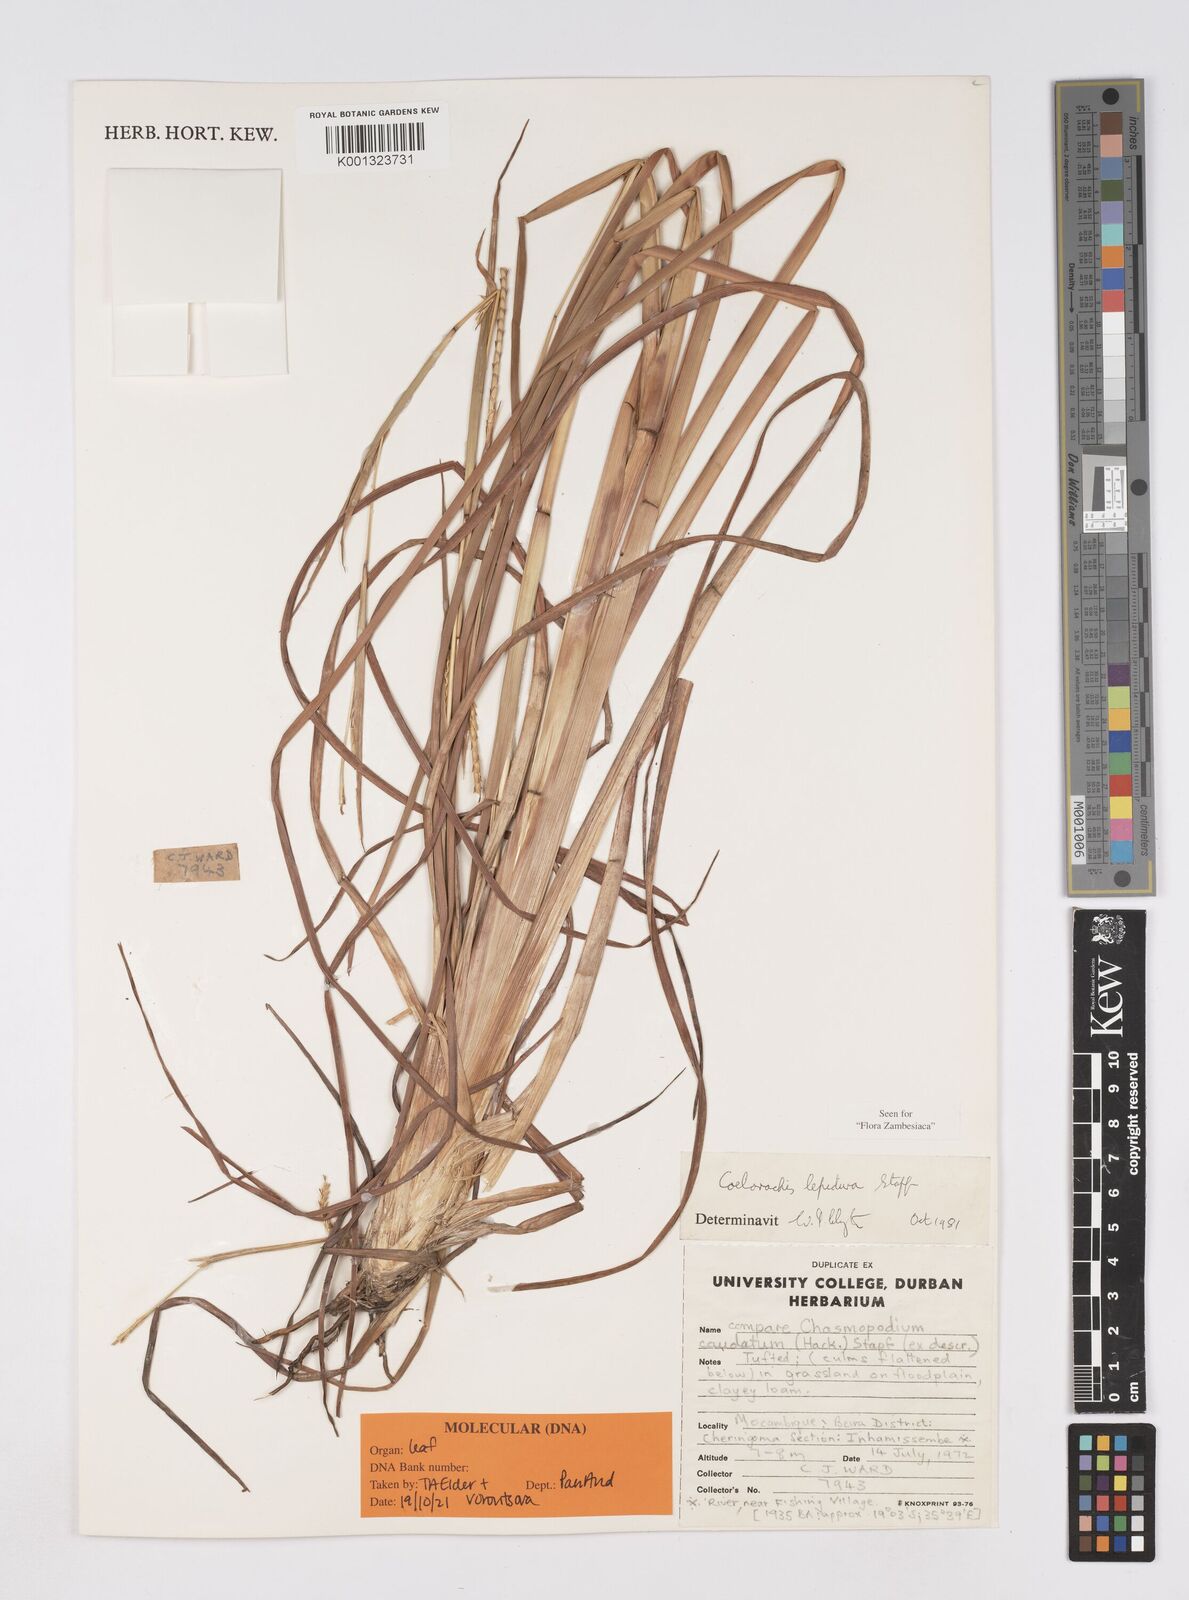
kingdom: Plantae
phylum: Tracheophyta
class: Liliopsida
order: Poales
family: Poaceae
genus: Rottboellia
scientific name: Rottboellia lepidura
